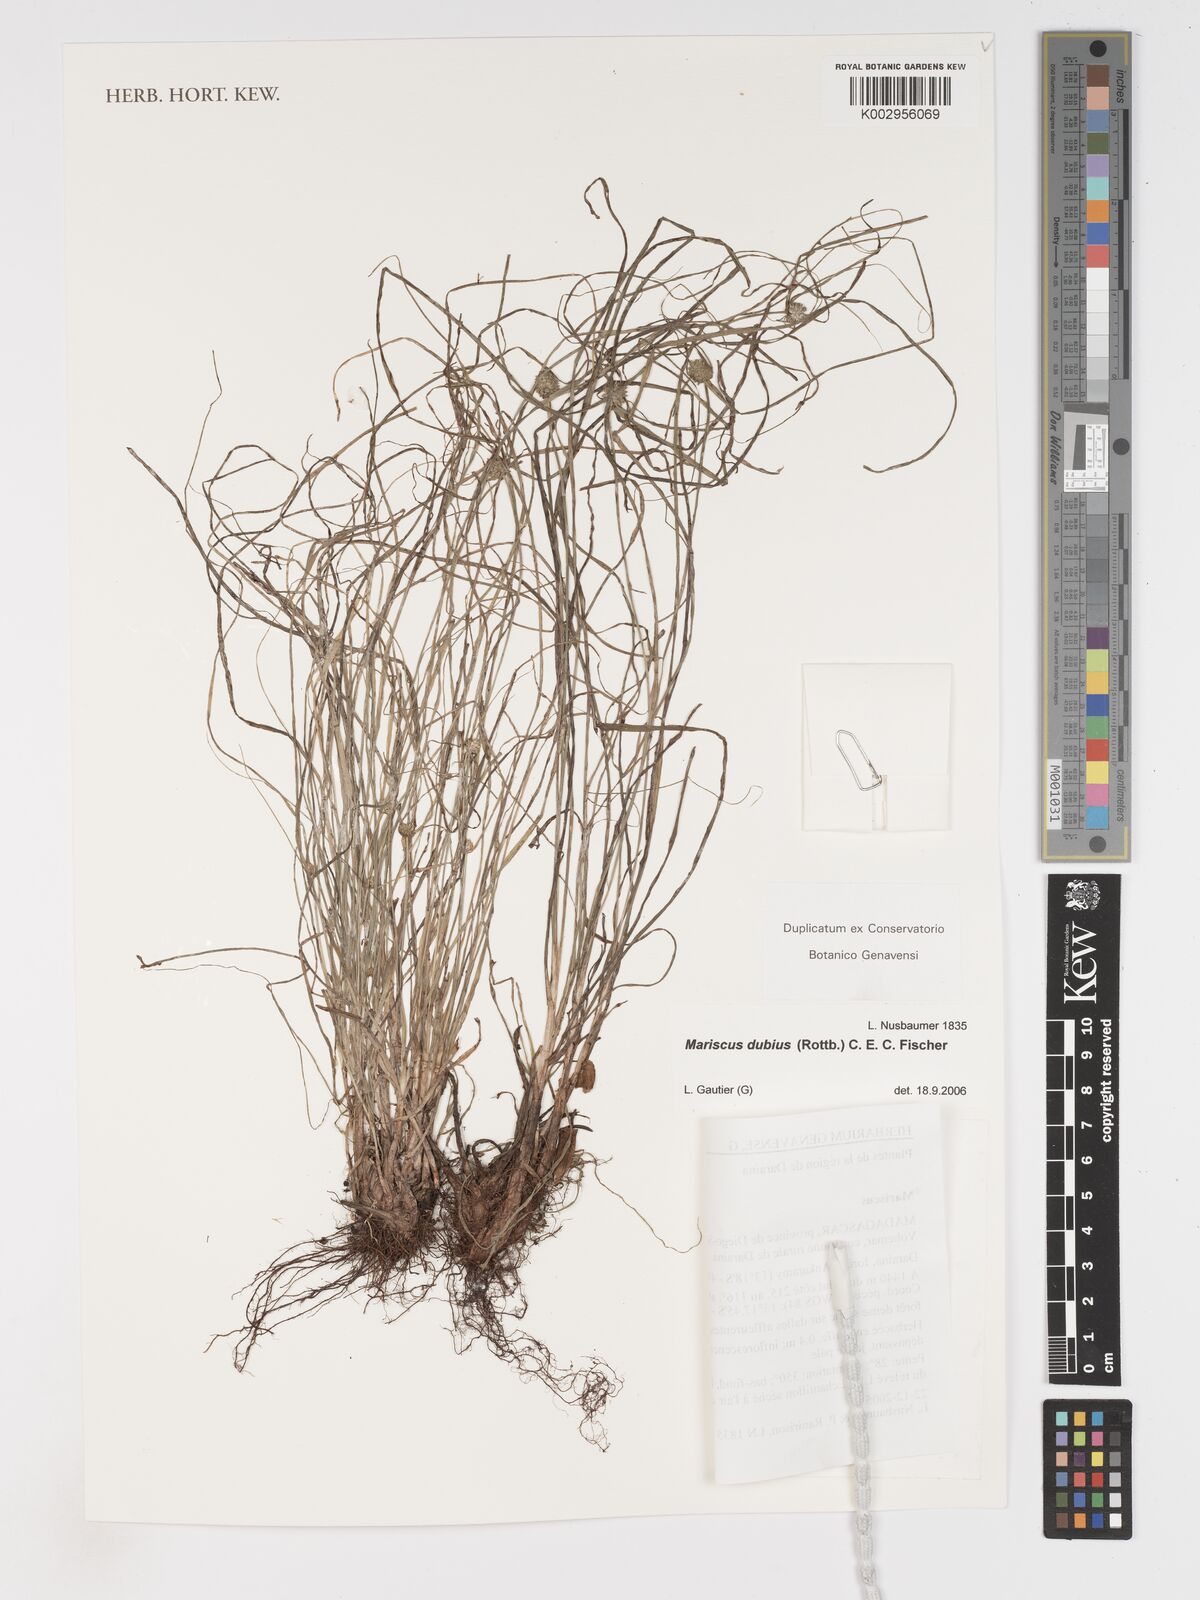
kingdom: Plantae
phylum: Tracheophyta
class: Liliopsida
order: Poales
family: Cyperaceae
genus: Cyperus
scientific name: Cyperus dubius
